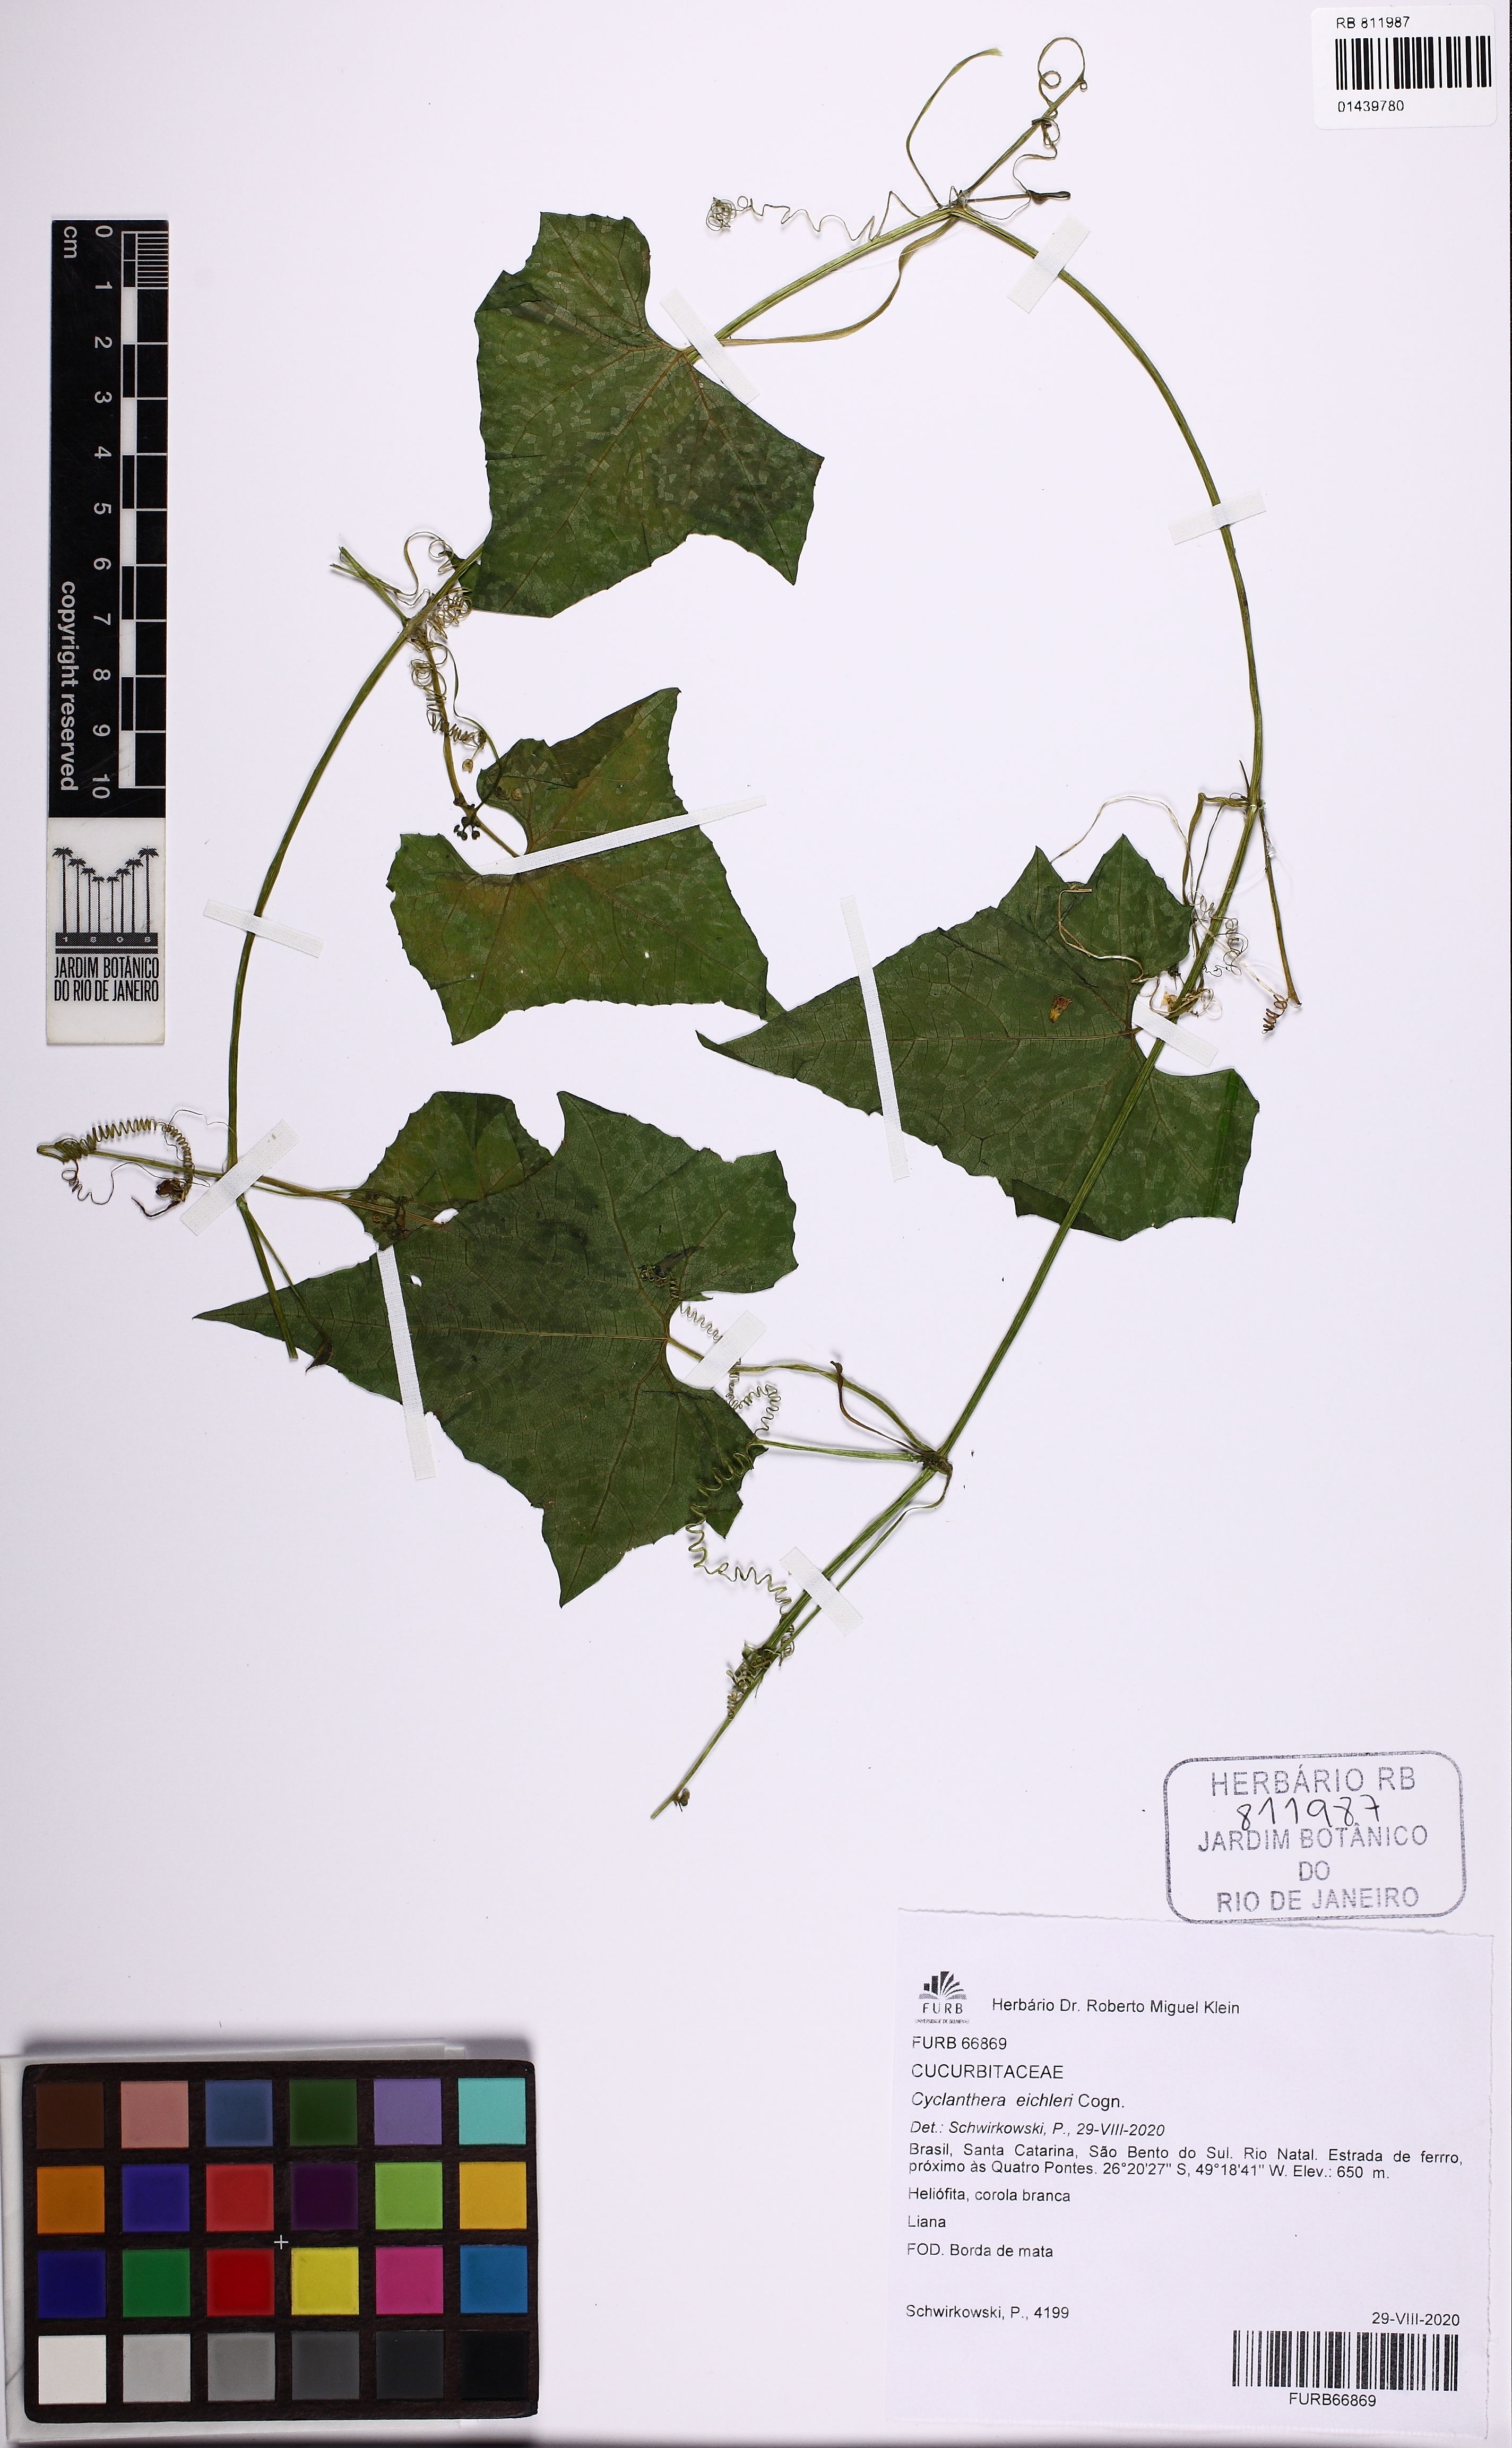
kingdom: Plantae
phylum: Tracheophyta
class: Magnoliopsida
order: Cucurbitales
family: Cucurbitaceae
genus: Cyclanthera
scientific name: Cyclanthera eichleri
